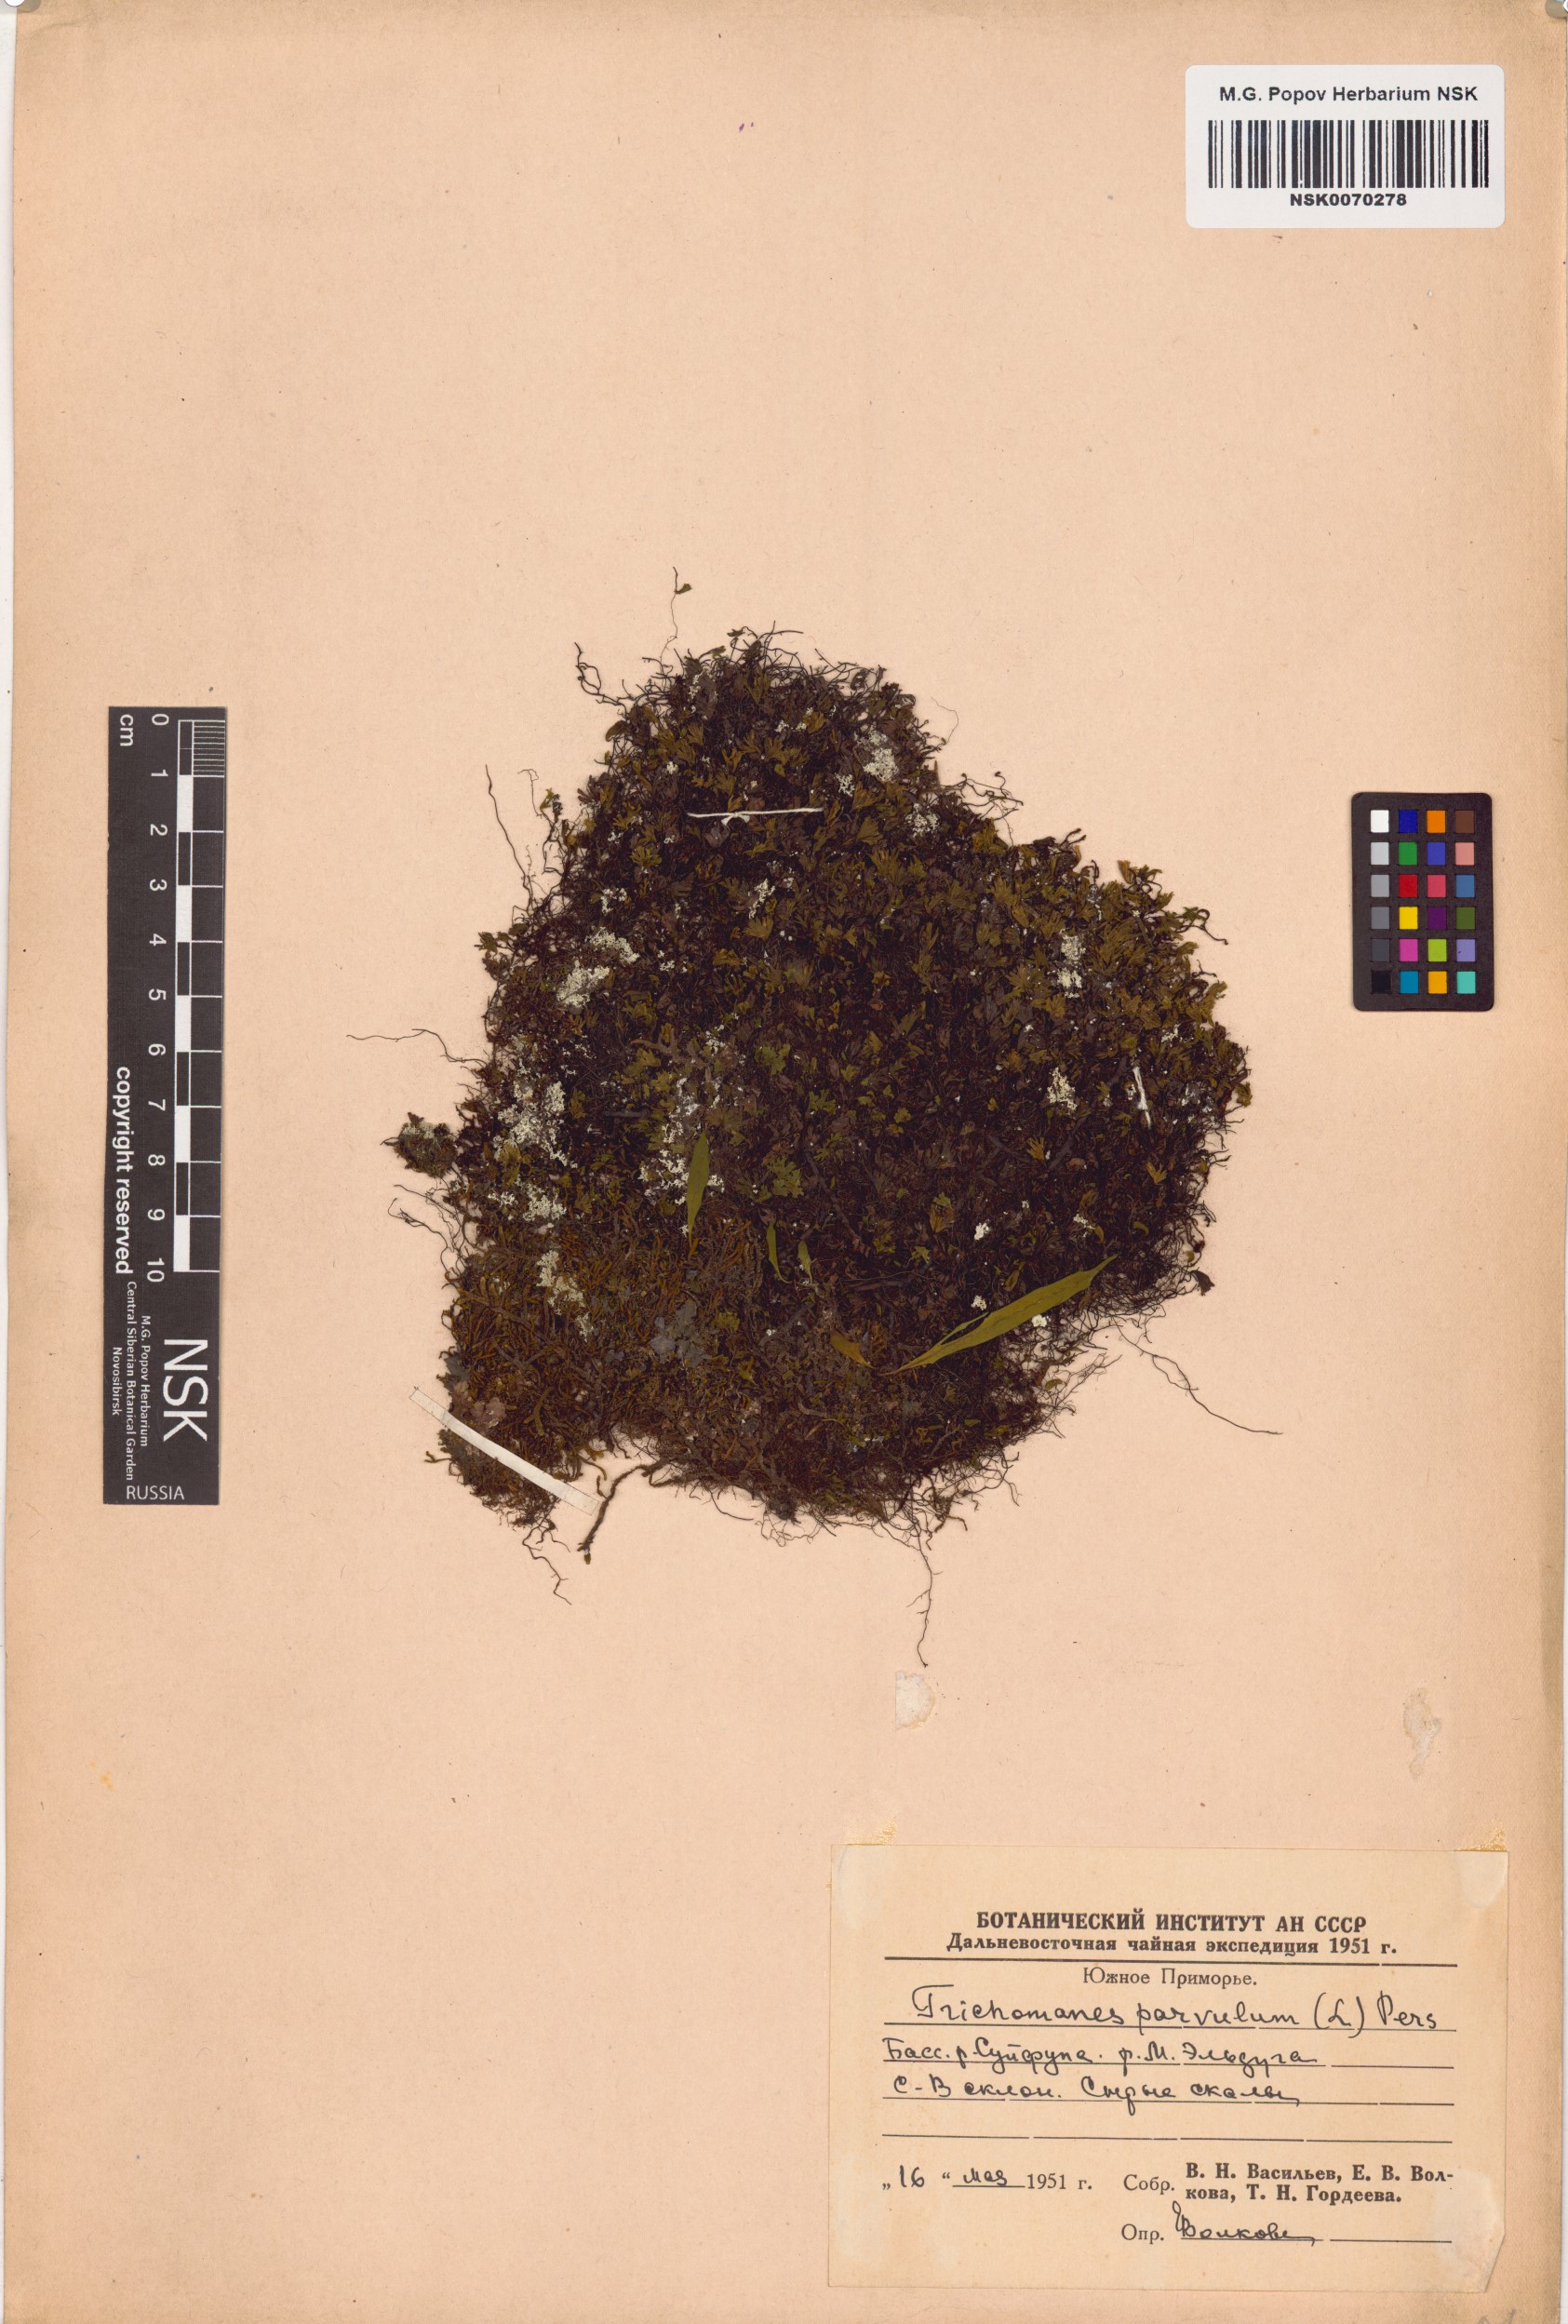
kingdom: Plantae
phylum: Tracheophyta
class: Polypodiopsida
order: Hymenophyllales
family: Hymenophyllaceae
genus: Crepidomanes
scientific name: Crepidomanes saxifragoides
